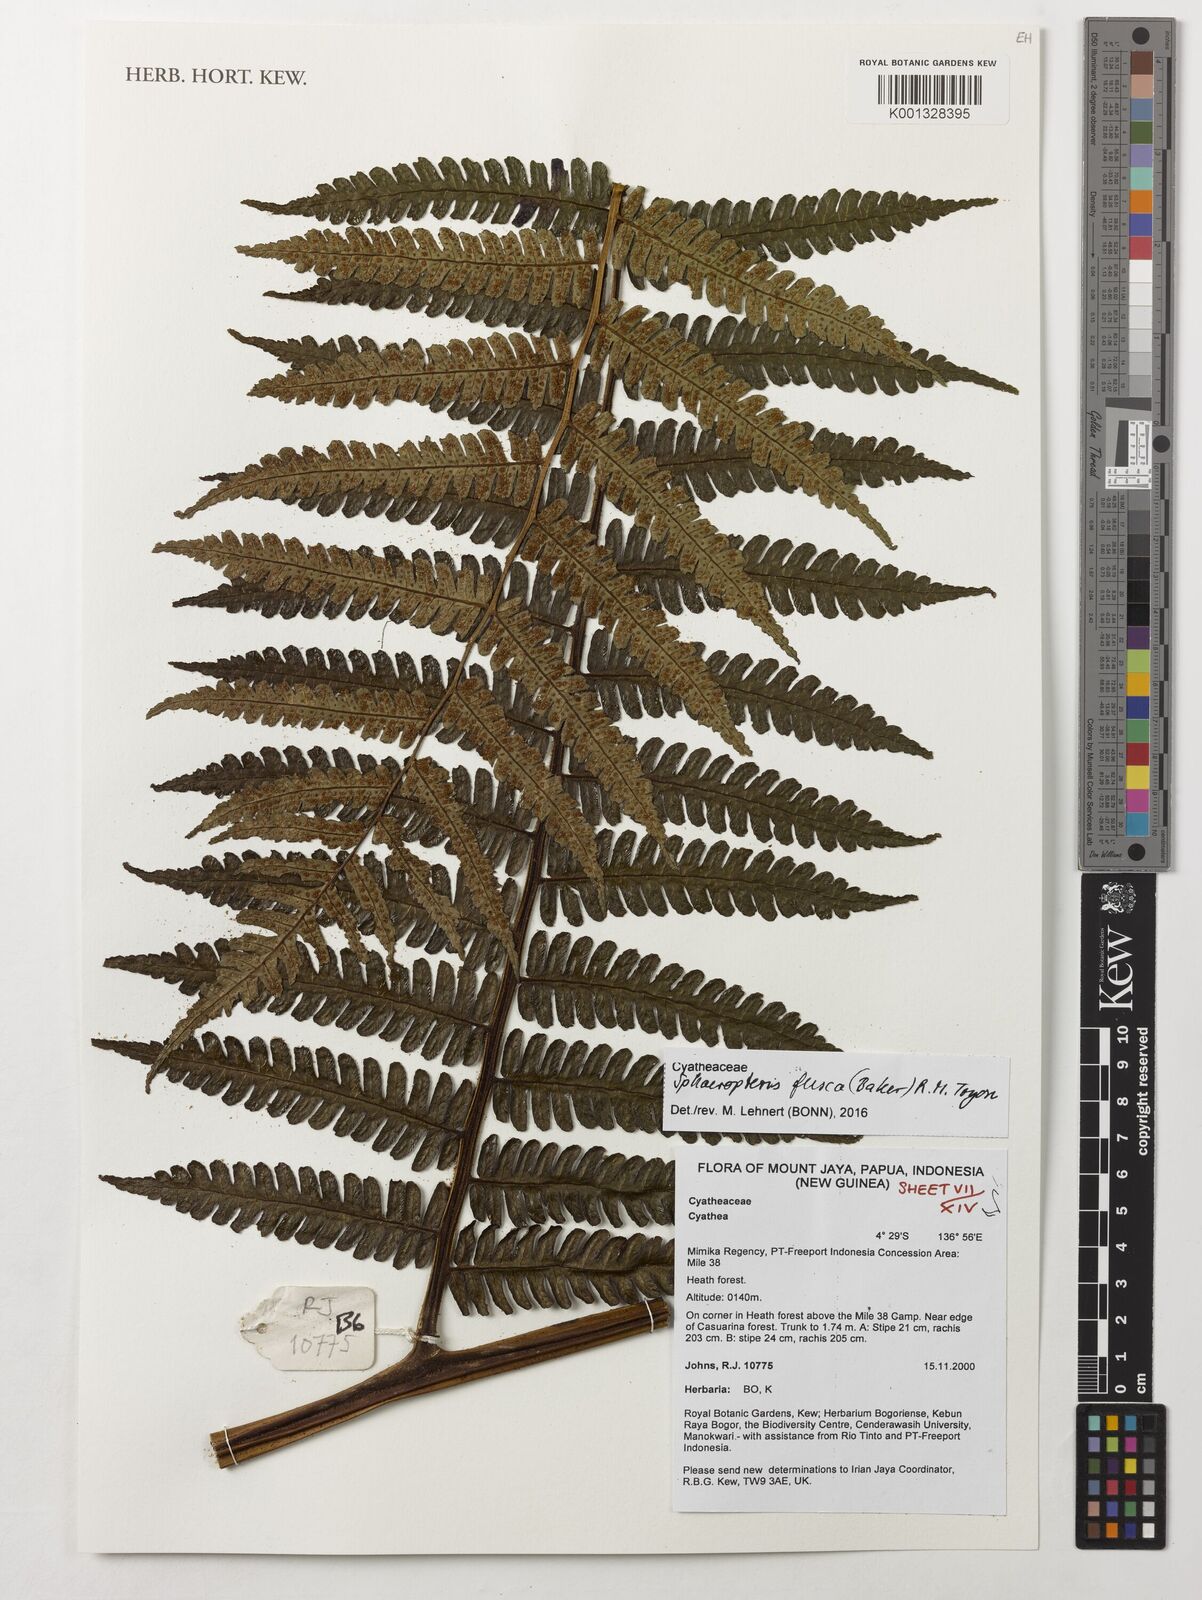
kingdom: Plantae
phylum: Tracheophyta
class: Polypodiopsida
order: Cyatheales
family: Cyatheaceae
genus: Sphaeropteris
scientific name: Sphaeropteris fusca
